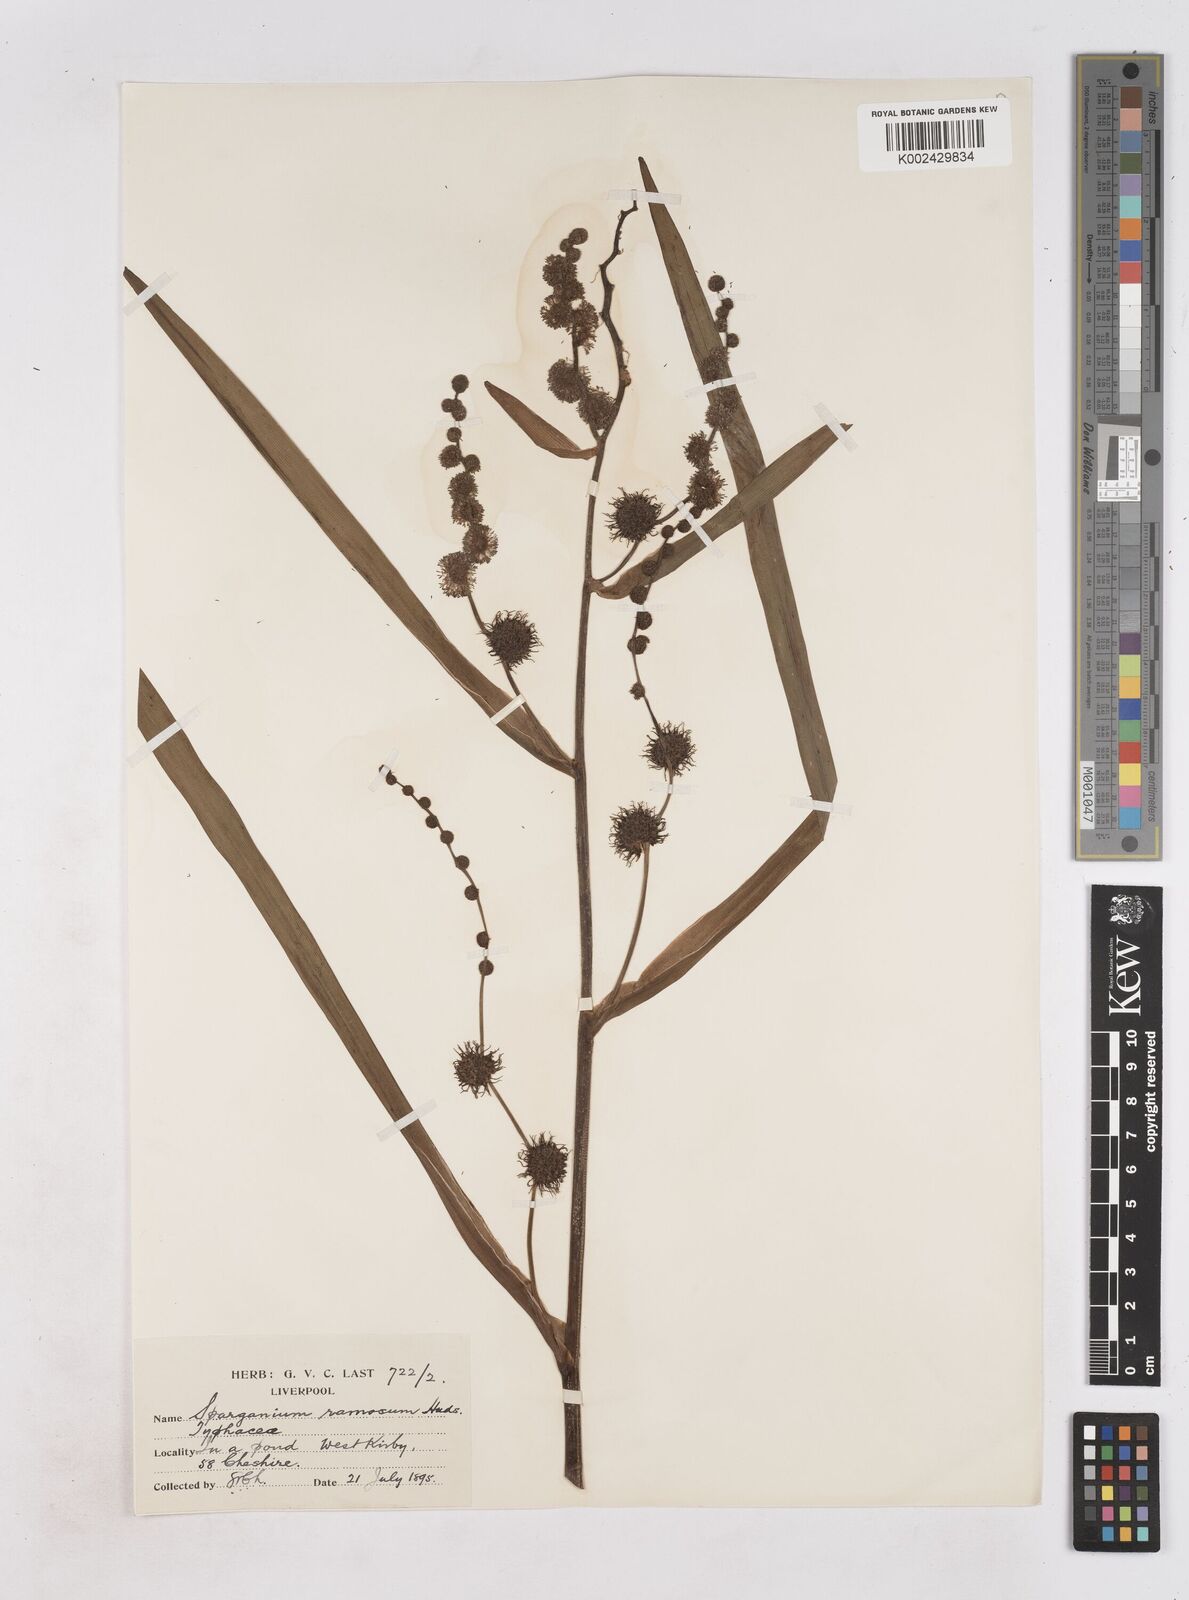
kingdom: Plantae
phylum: Tracheophyta
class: Liliopsida
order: Poales
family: Typhaceae
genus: Sparganium
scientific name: Sparganium erectum
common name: Branched bur-reed
